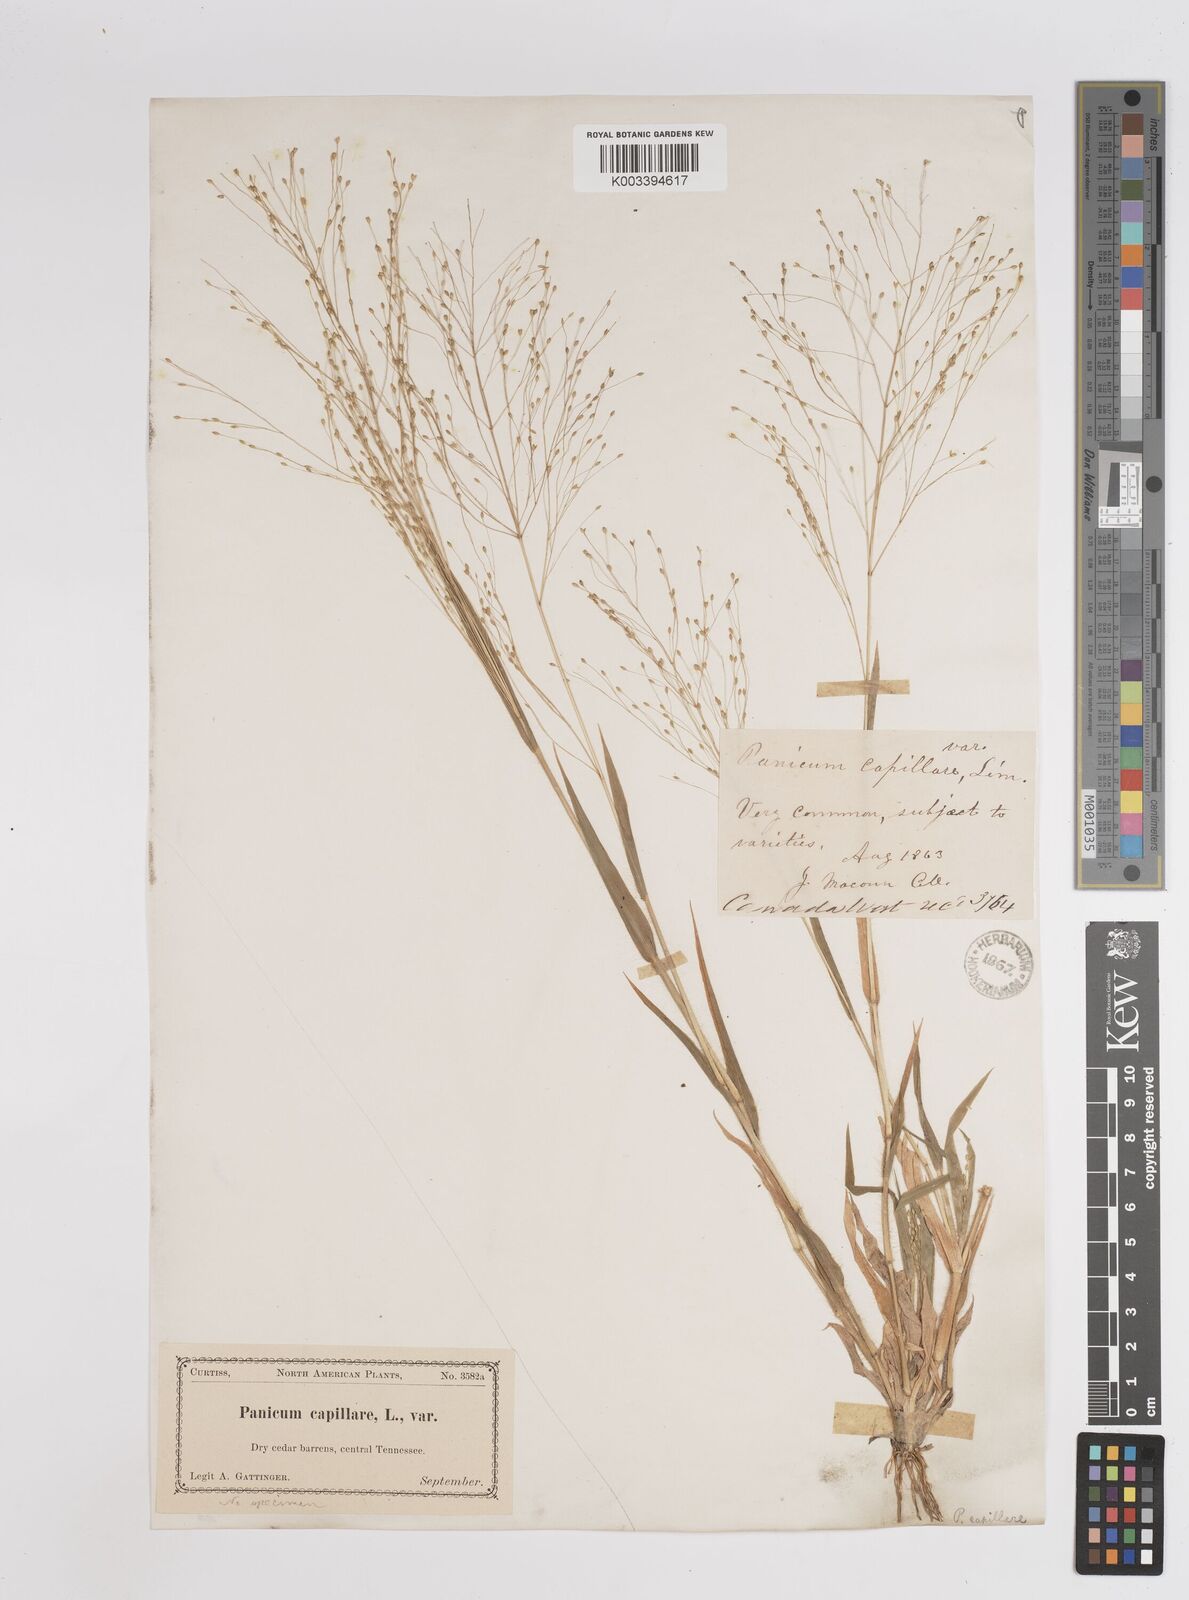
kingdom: Plantae
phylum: Tracheophyta
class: Liliopsida
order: Poales
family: Poaceae
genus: Panicum
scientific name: Panicum capillare
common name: Witch-grass
